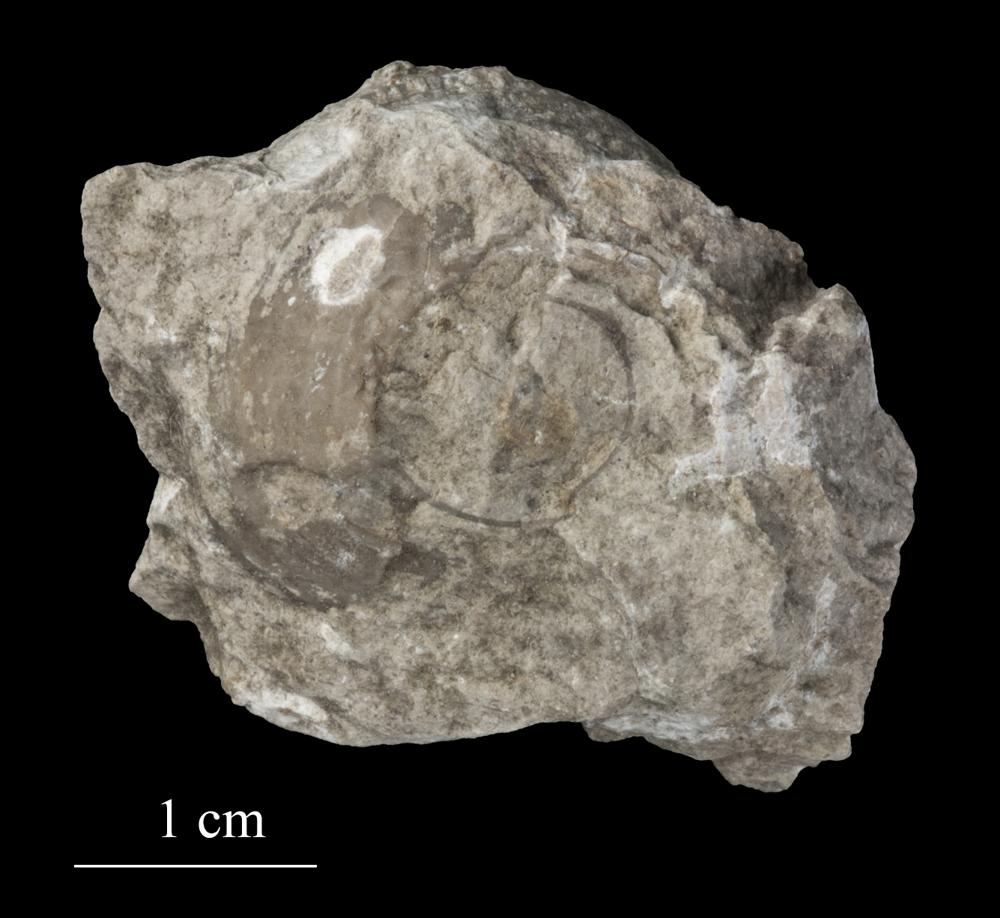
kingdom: Animalia
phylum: Mollusca
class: Gastropoda
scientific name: Gastropoda
